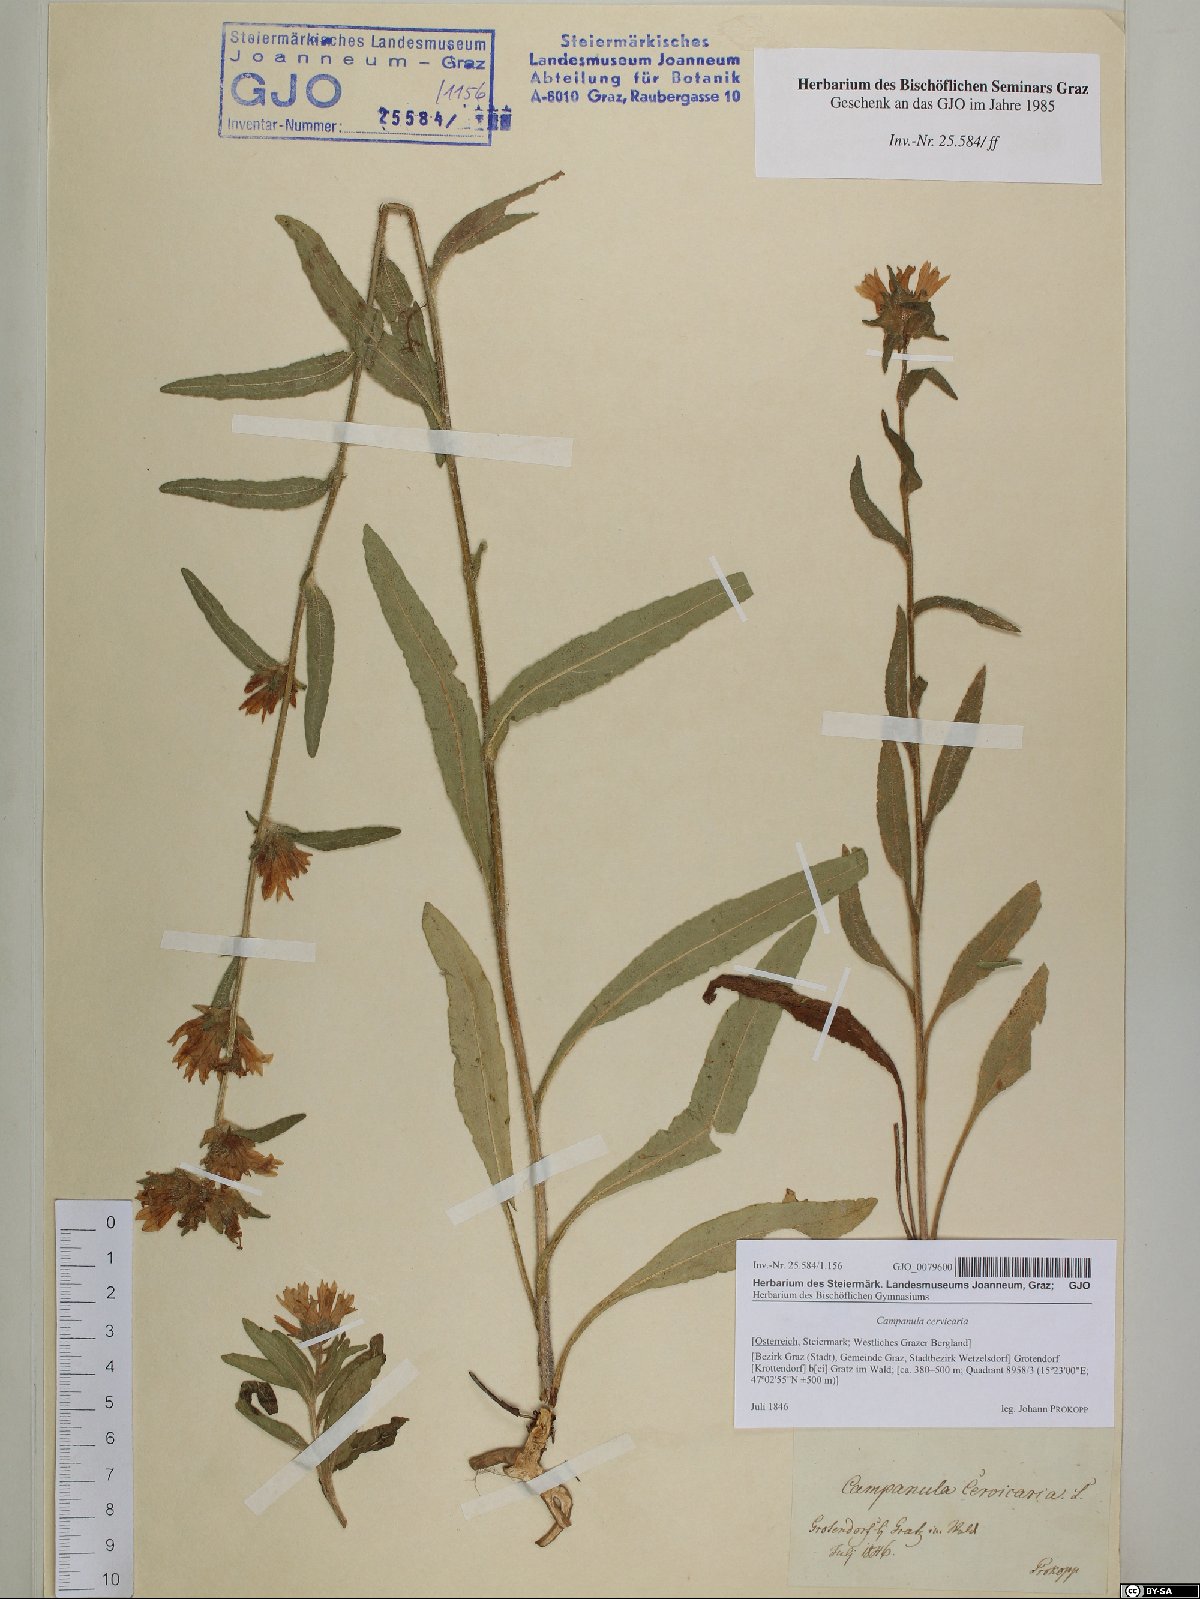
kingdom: Plantae
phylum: Tracheophyta
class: Magnoliopsida
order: Asterales
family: Campanulaceae
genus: Campanula
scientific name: Campanula cervicaria
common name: Bristly bellflower
